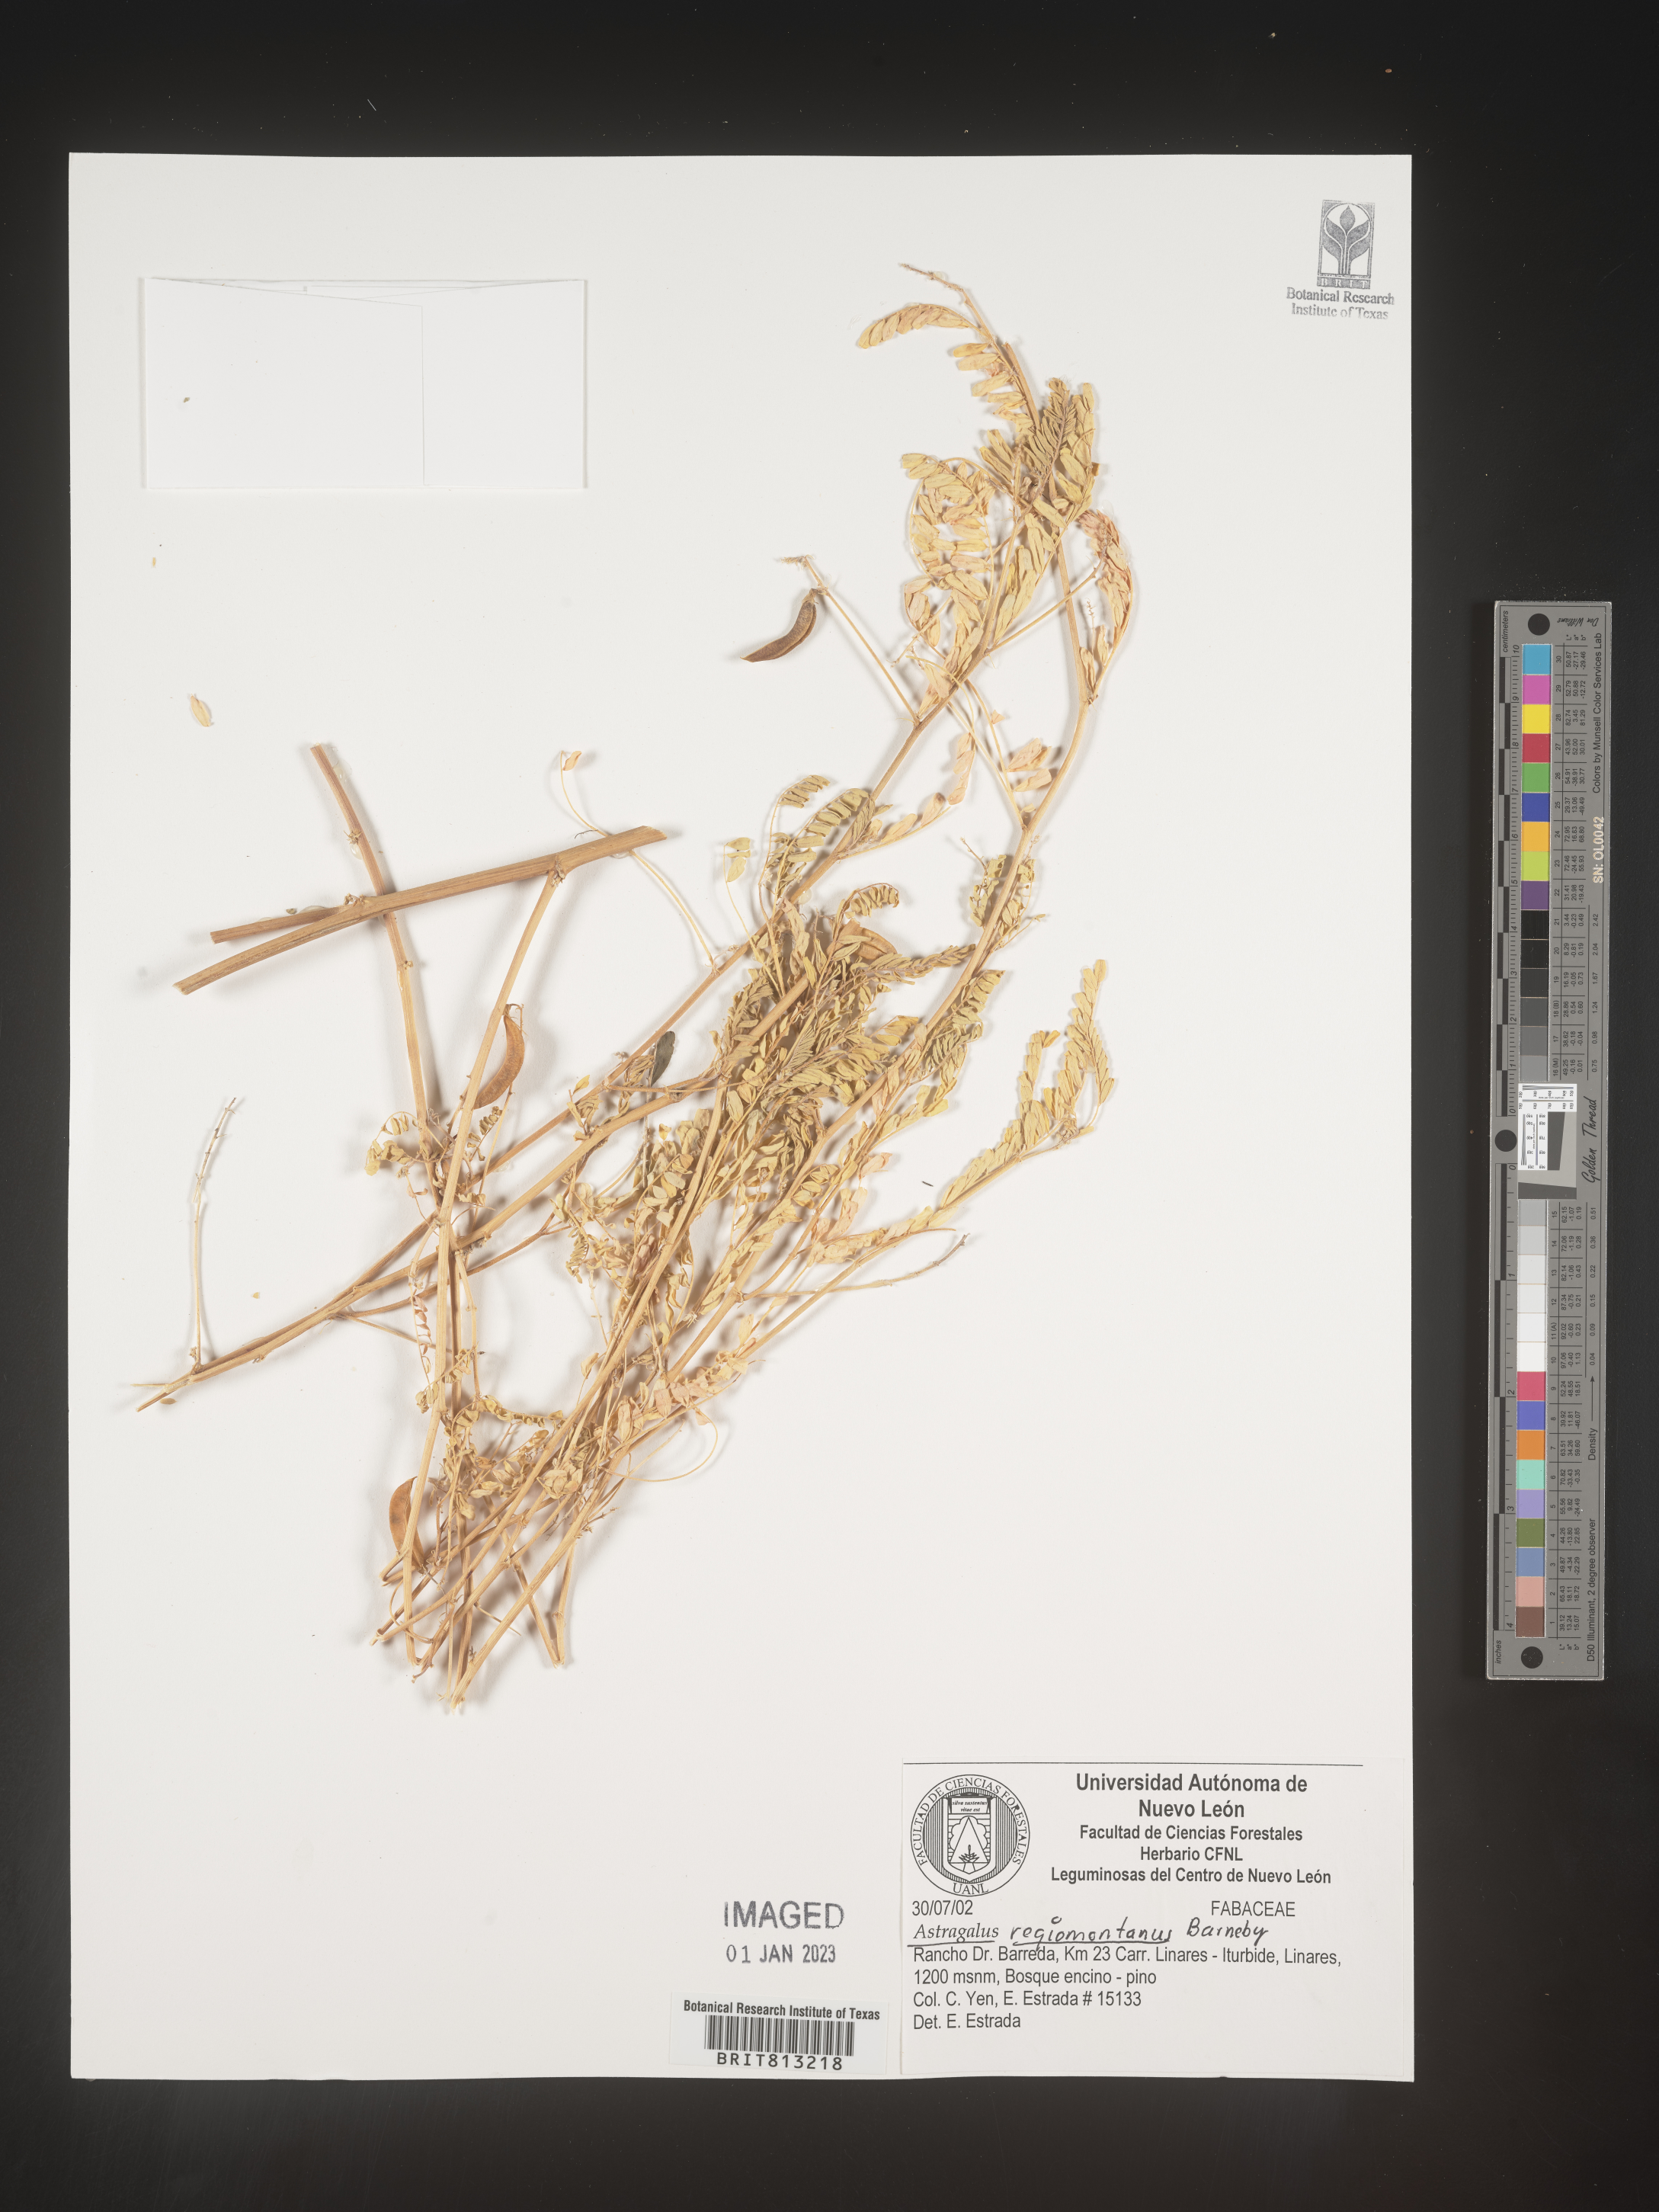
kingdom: Plantae
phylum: Tracheophyta
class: Magnoliopsida
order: Fabales
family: Fabaceae
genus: Astragalus
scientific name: Astragalus
